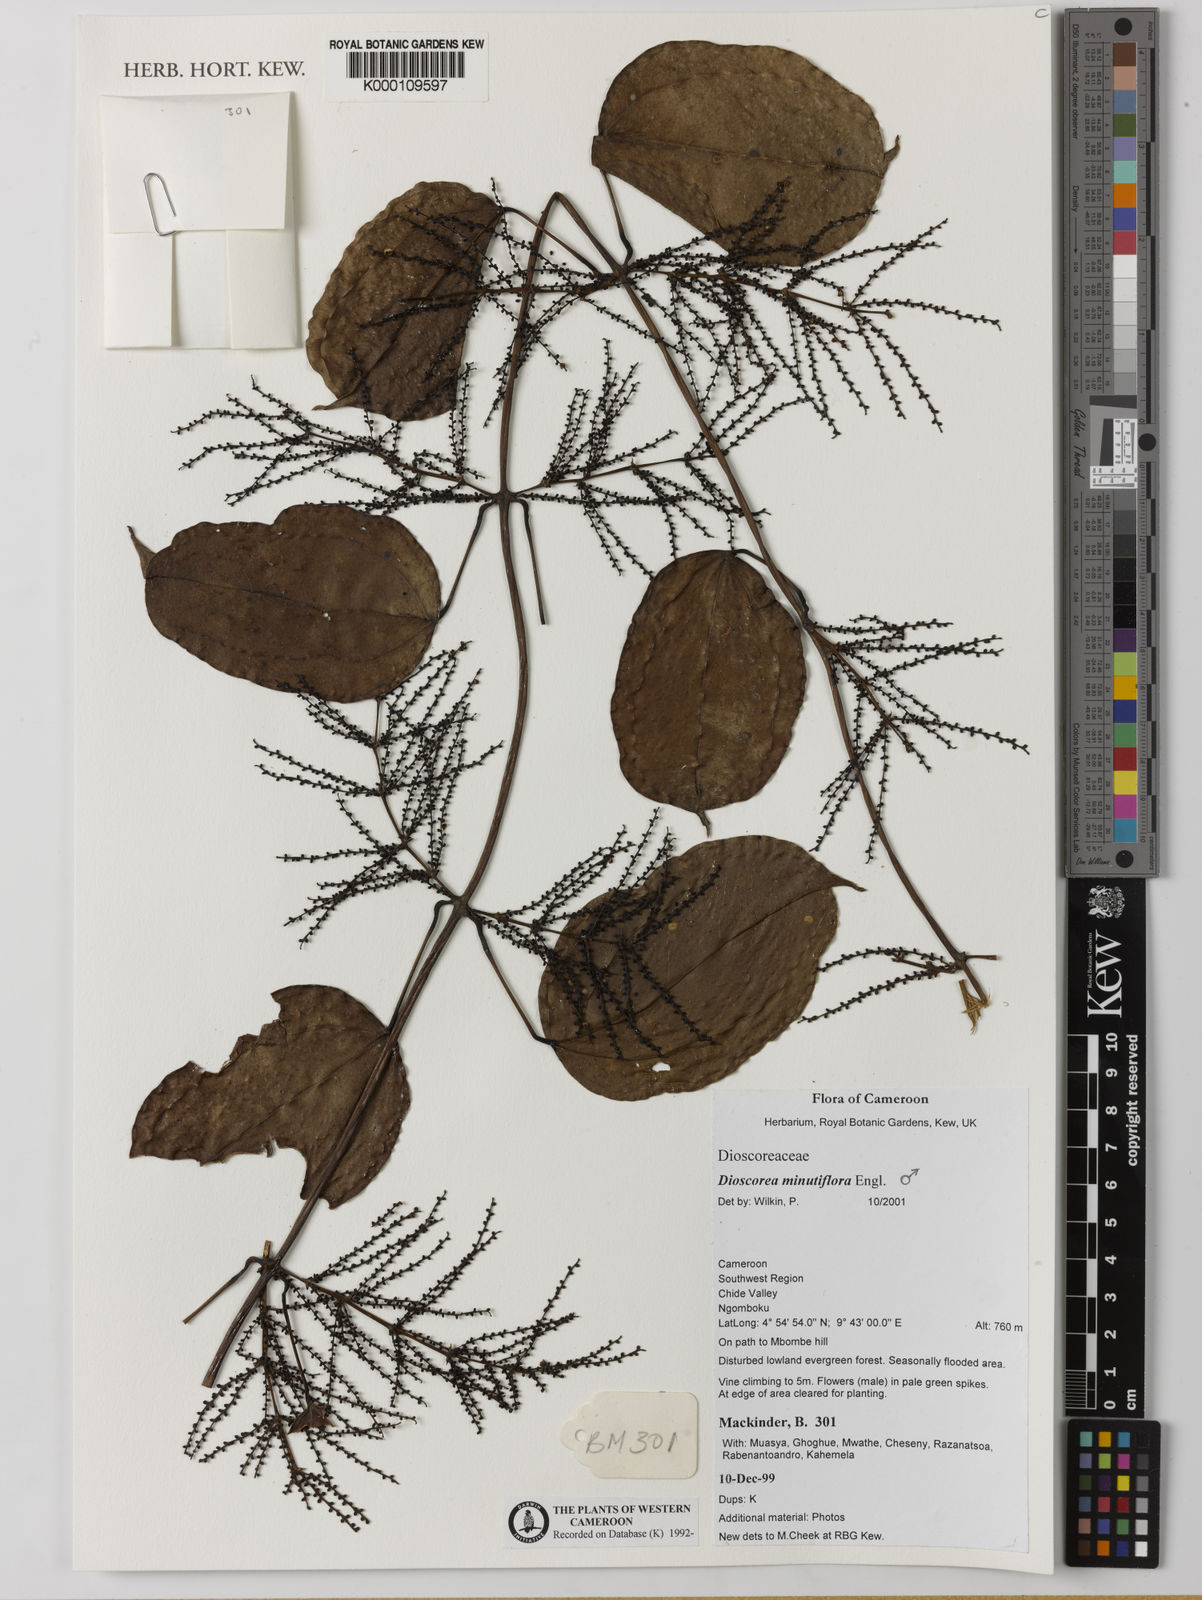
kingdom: Plantae
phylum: Tracheophyta
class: Liliopsida
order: Dioscoreales
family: Dioscoreaceae
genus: Dioscorea
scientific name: Dioscorea minutiflora
